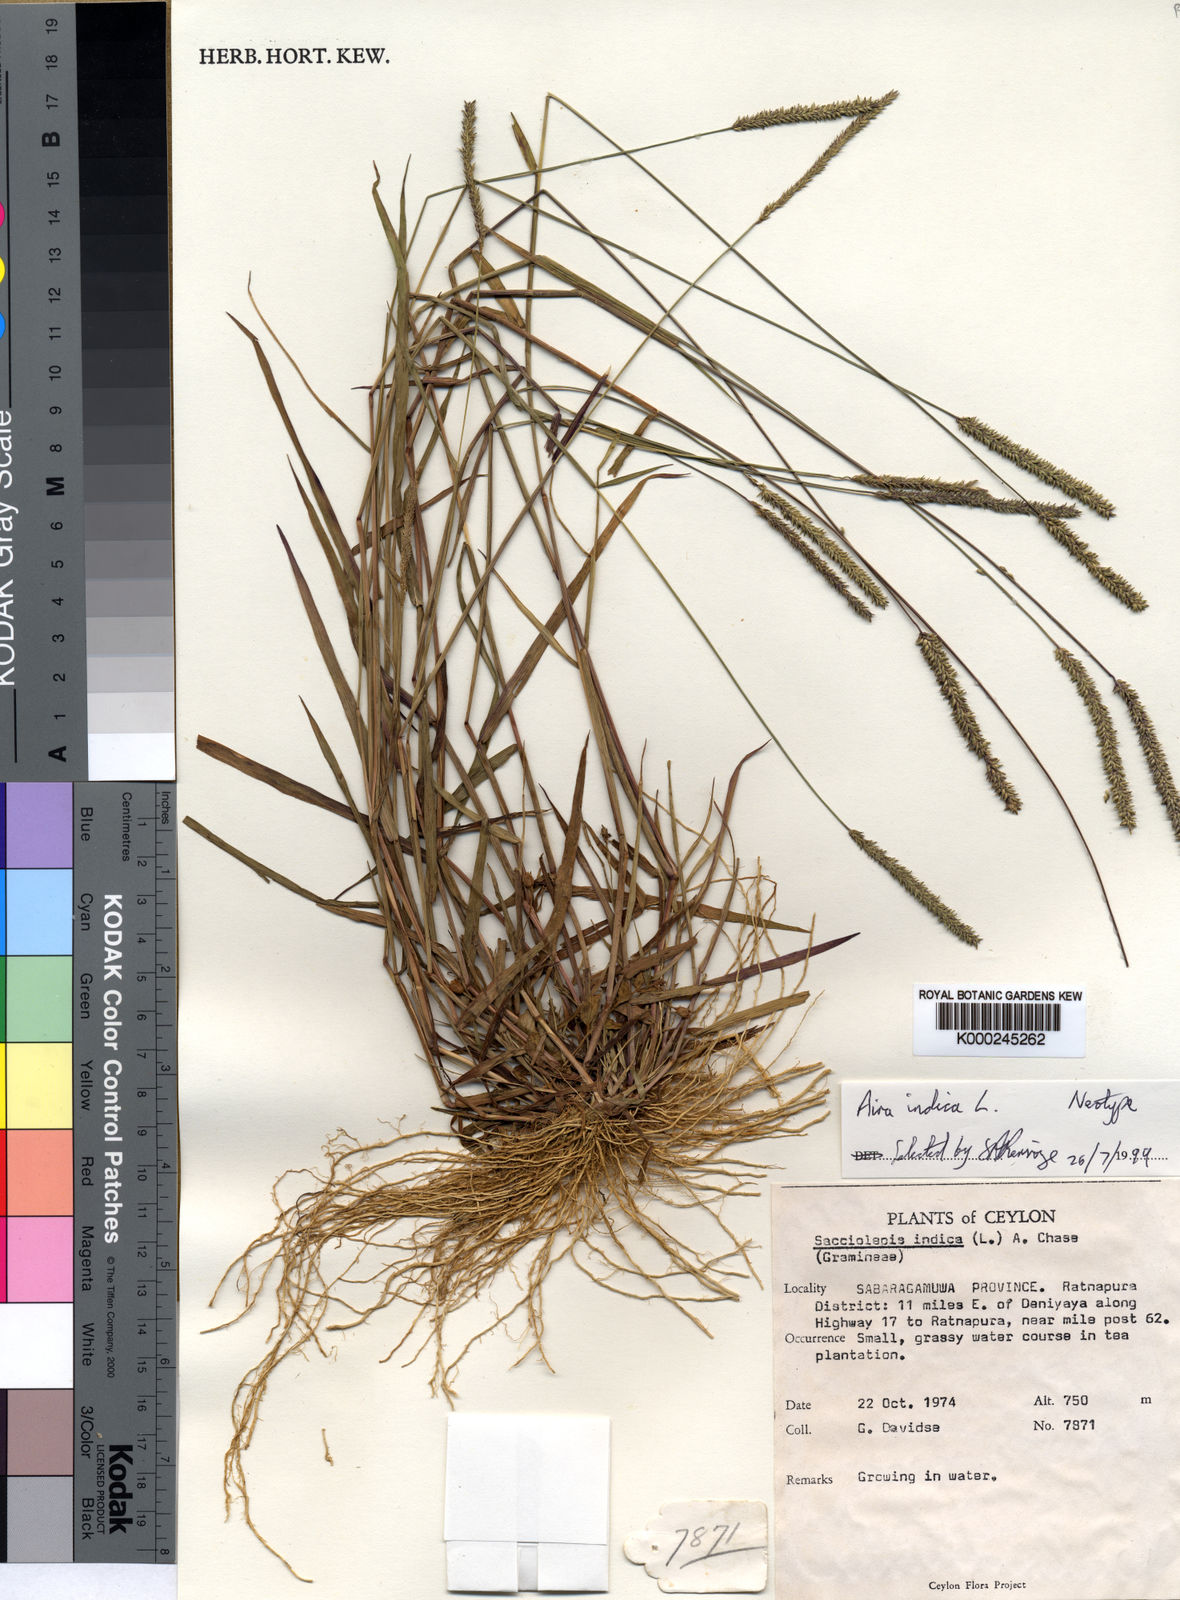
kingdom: Plantae
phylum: Tracheophyta
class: Liliopsida
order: Poales
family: Poaceae
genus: Sacciolepis
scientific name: Sacciolepis indica
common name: Glenwoodgrass
